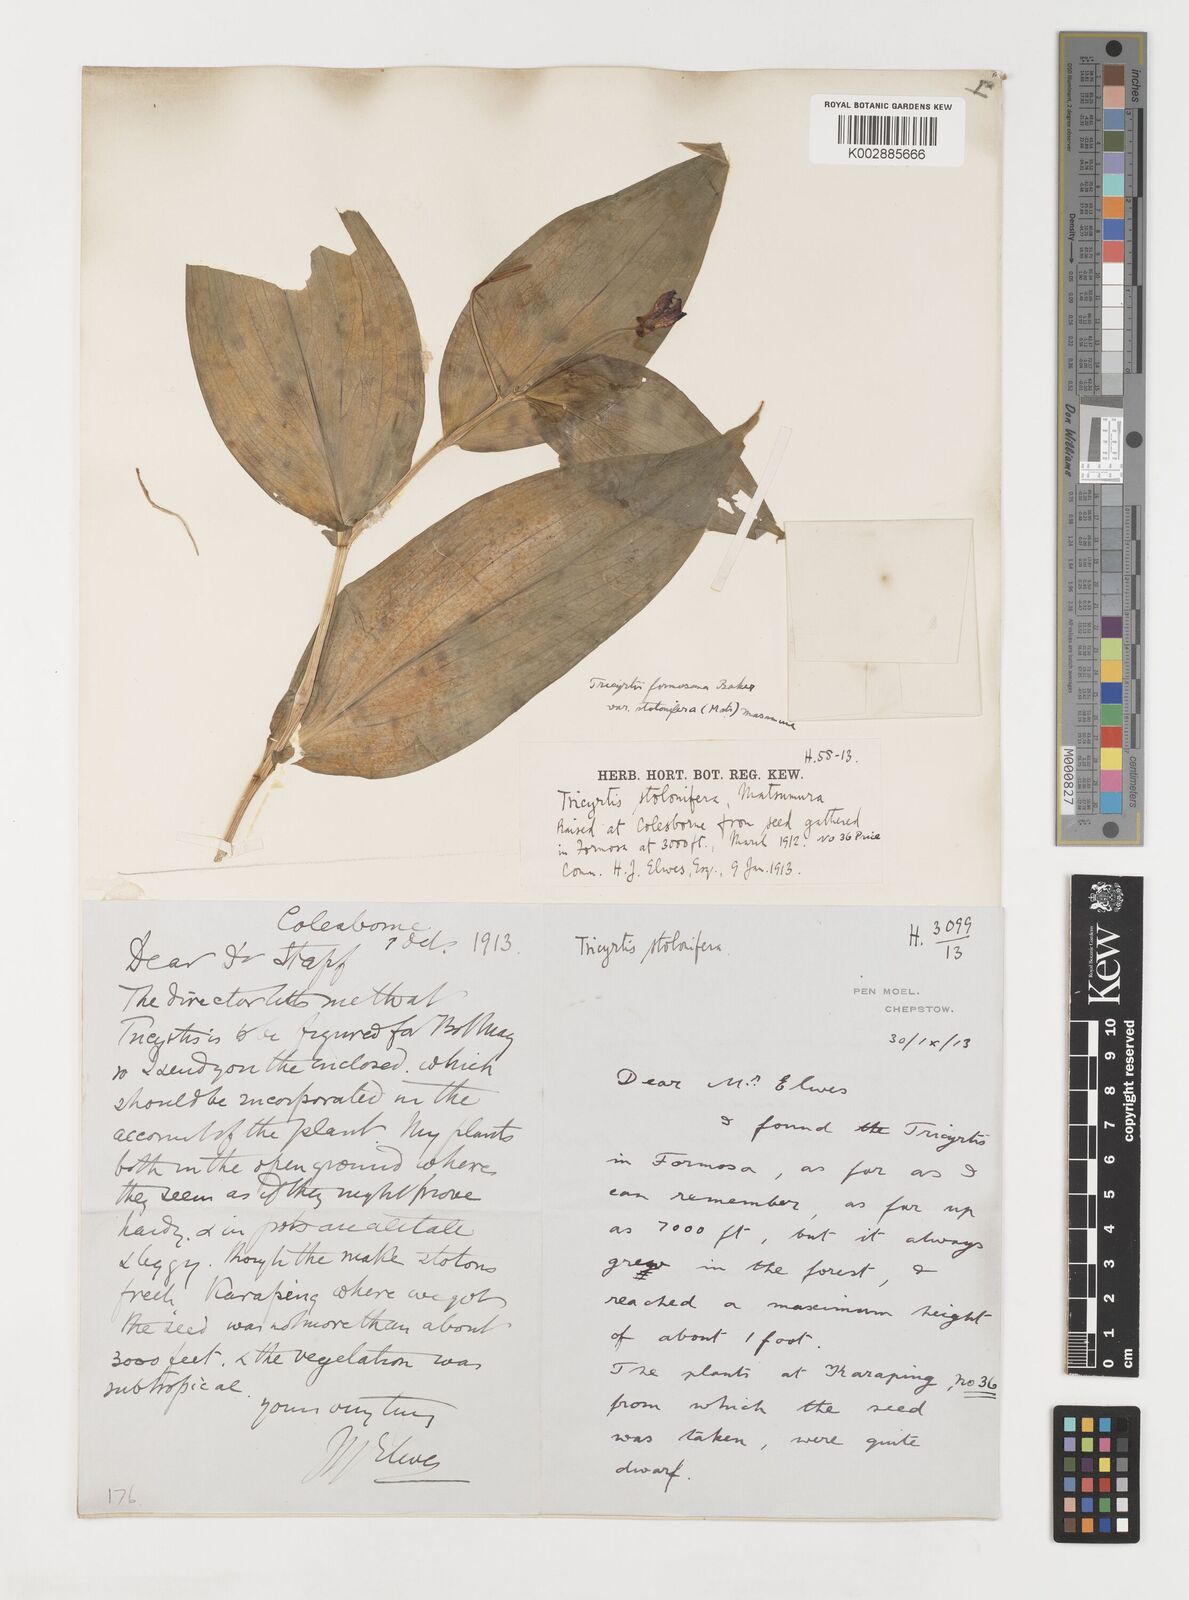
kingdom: Plantae
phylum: Tracheophyta
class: Liliopsida
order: Liliales
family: Liliaceae
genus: Tricyrtis
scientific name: Tricyrtis formosana
